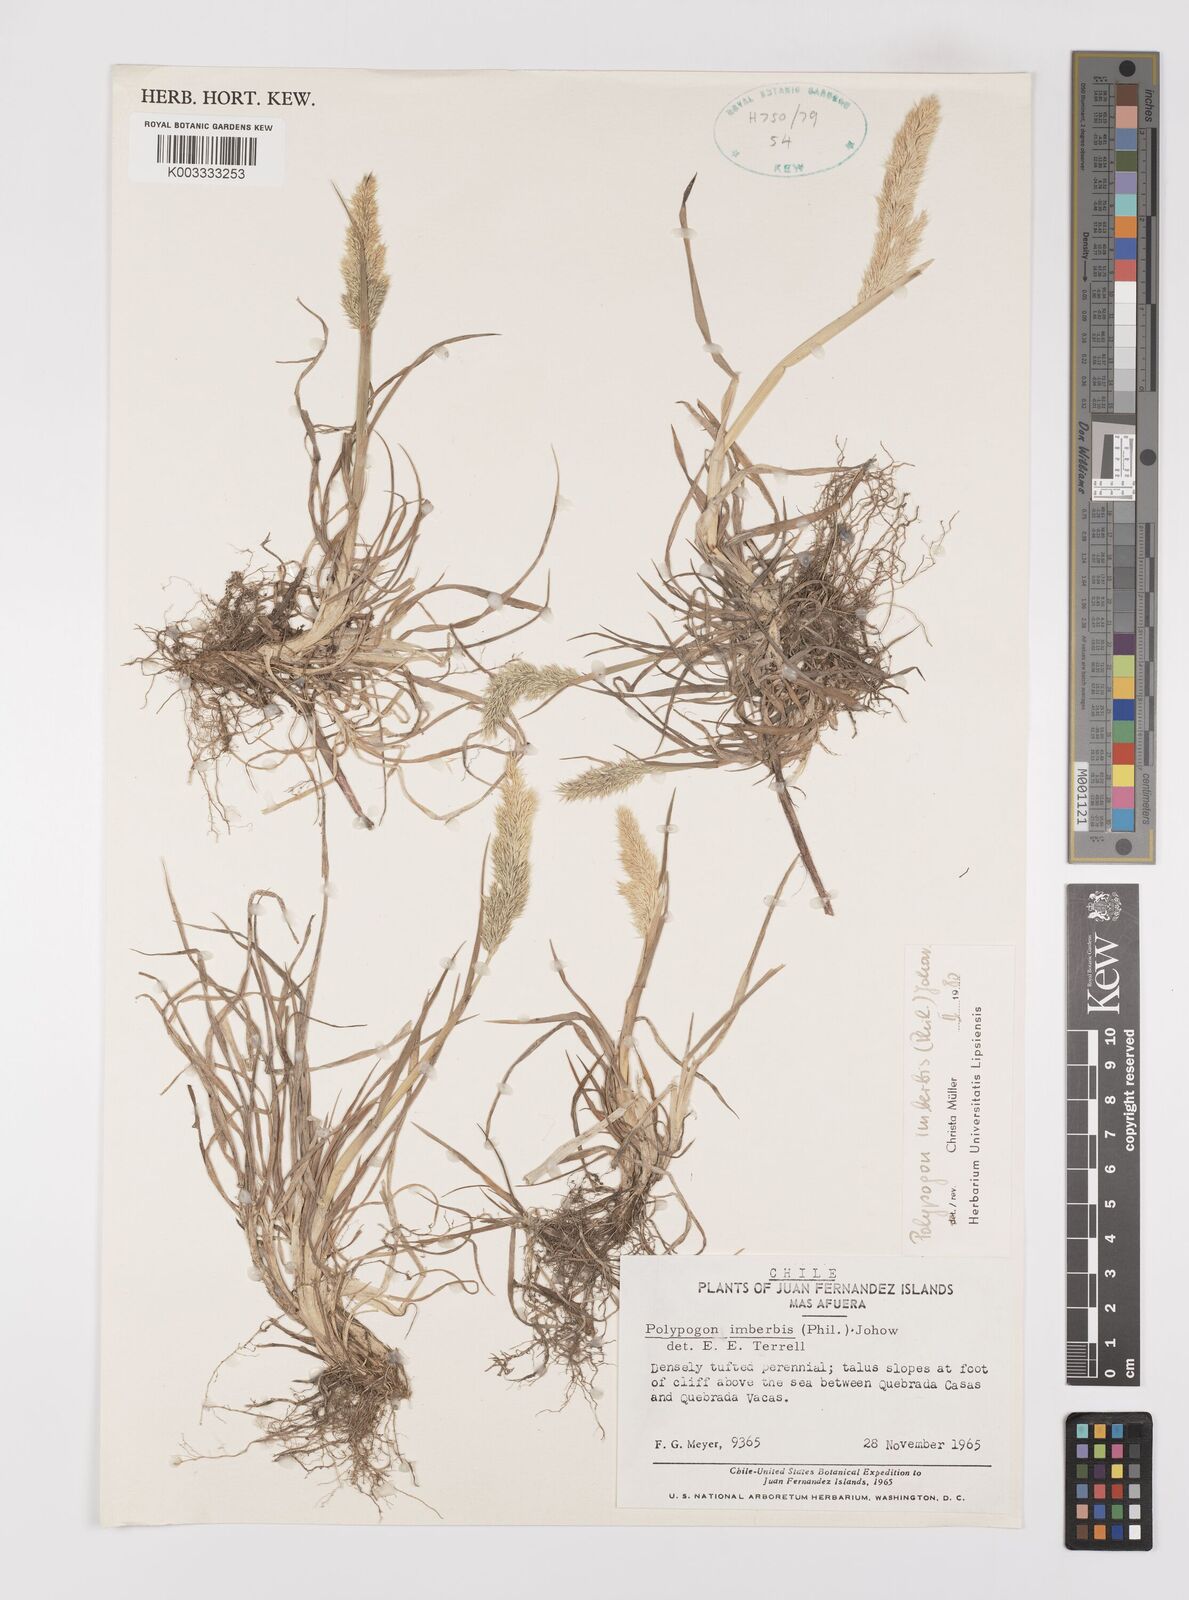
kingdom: Plantae
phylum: Tracheophyta
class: Liliopsida
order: Poales
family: Poaceae
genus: Polypogon
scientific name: Polypogon imberbis
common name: Beardless rabbitsfoot grass
